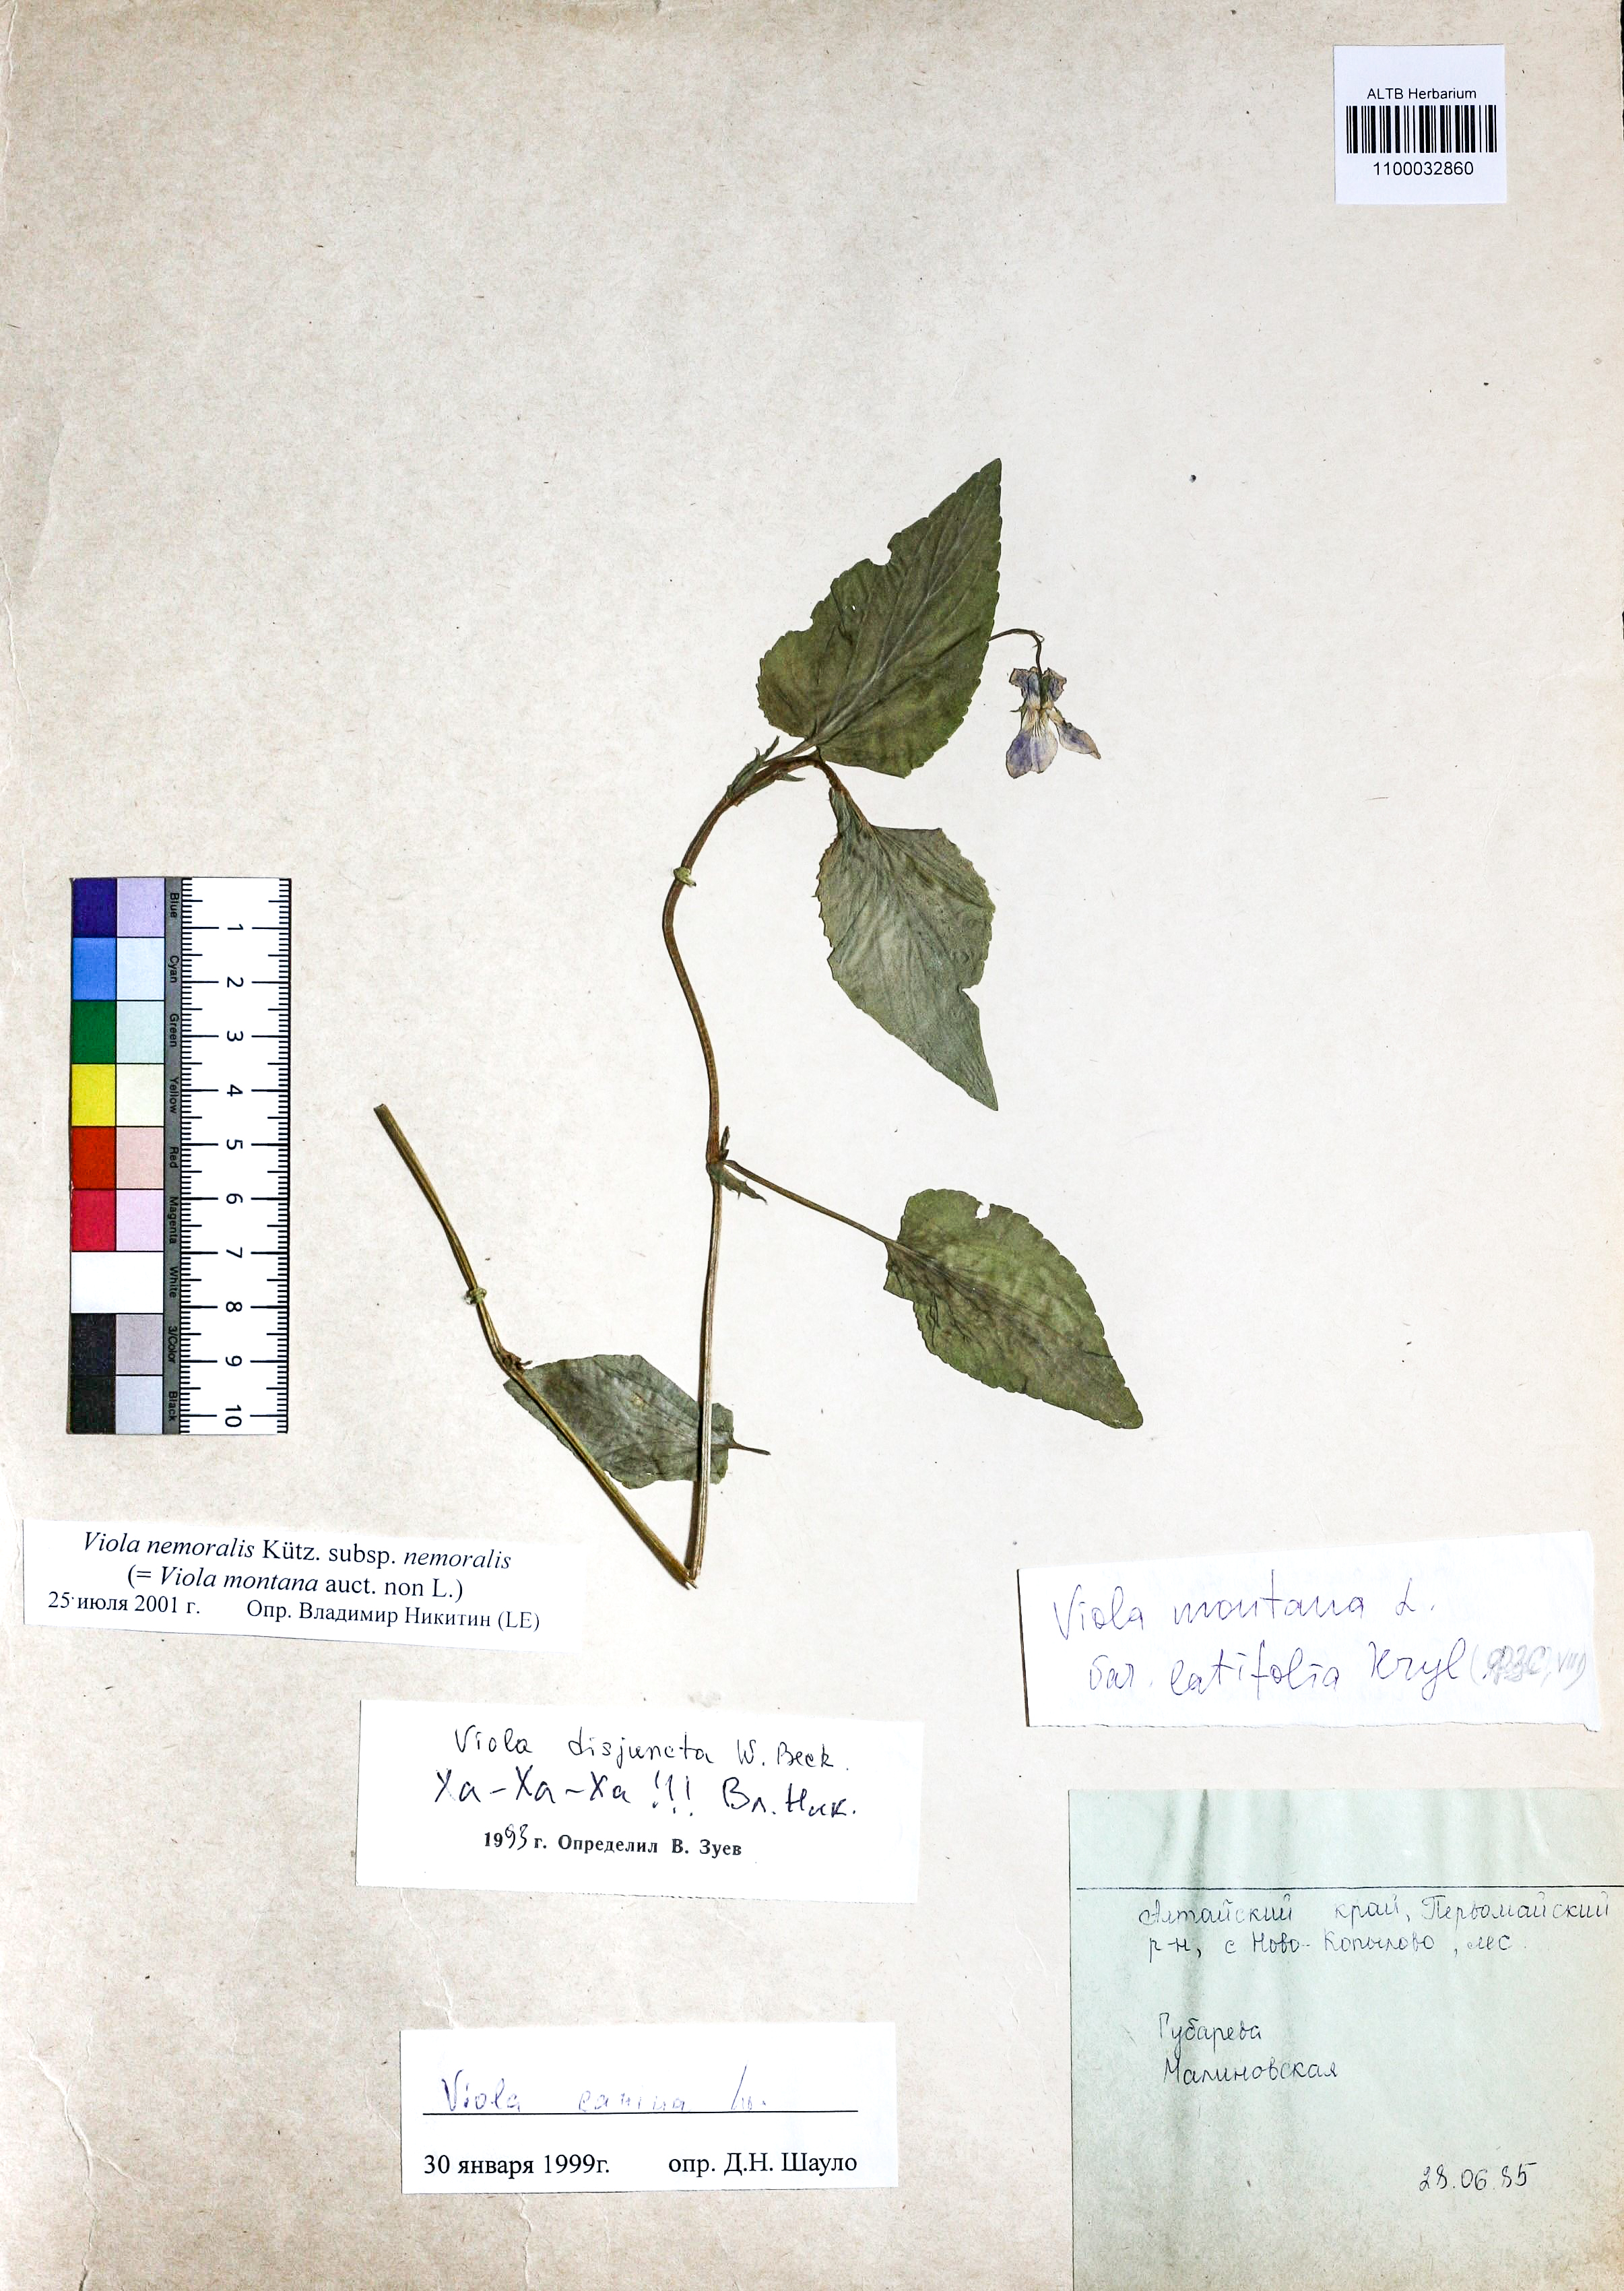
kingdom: Plantae
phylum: Tracheophyta
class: Magnoliopsida
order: Malpighiales
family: Violaceae
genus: Viola
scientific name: Viola ruppii
